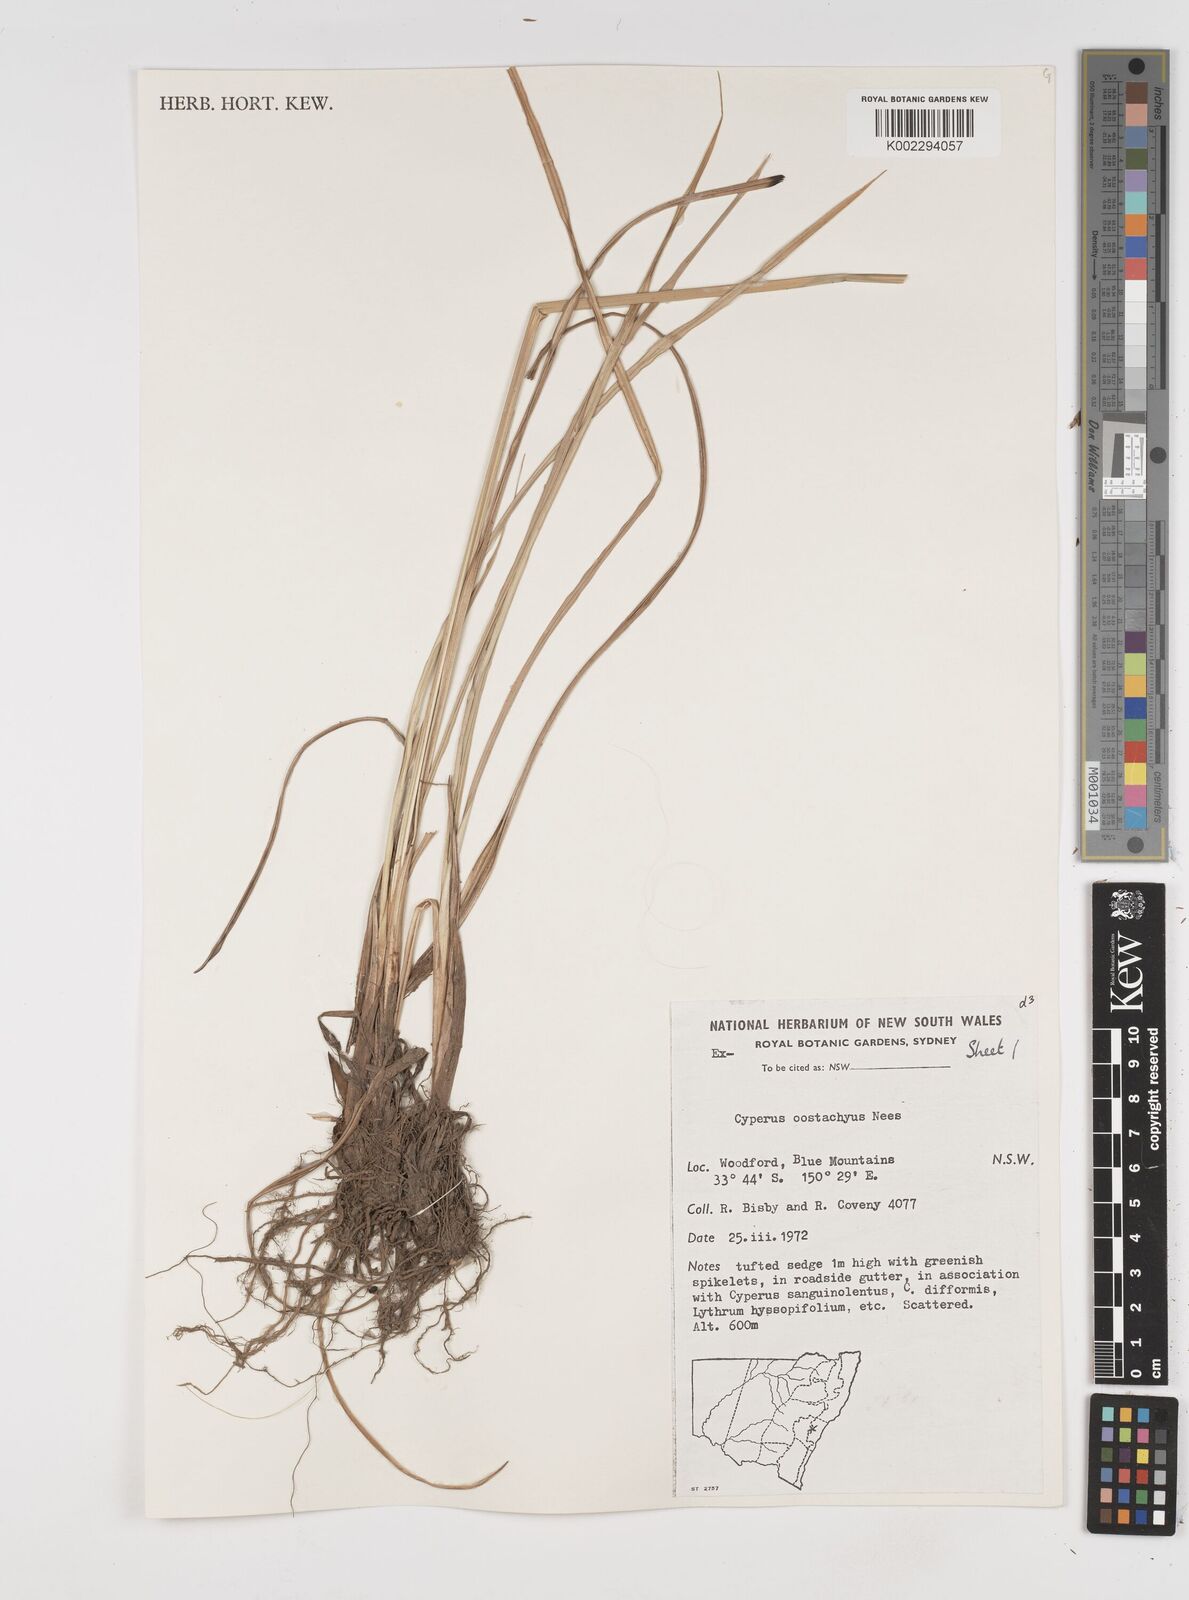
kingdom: Plantae
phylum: Tracheophyta
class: Liliopsida
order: Poales
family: Cyperaceae
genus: Cyperus
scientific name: Cyperus rigens
